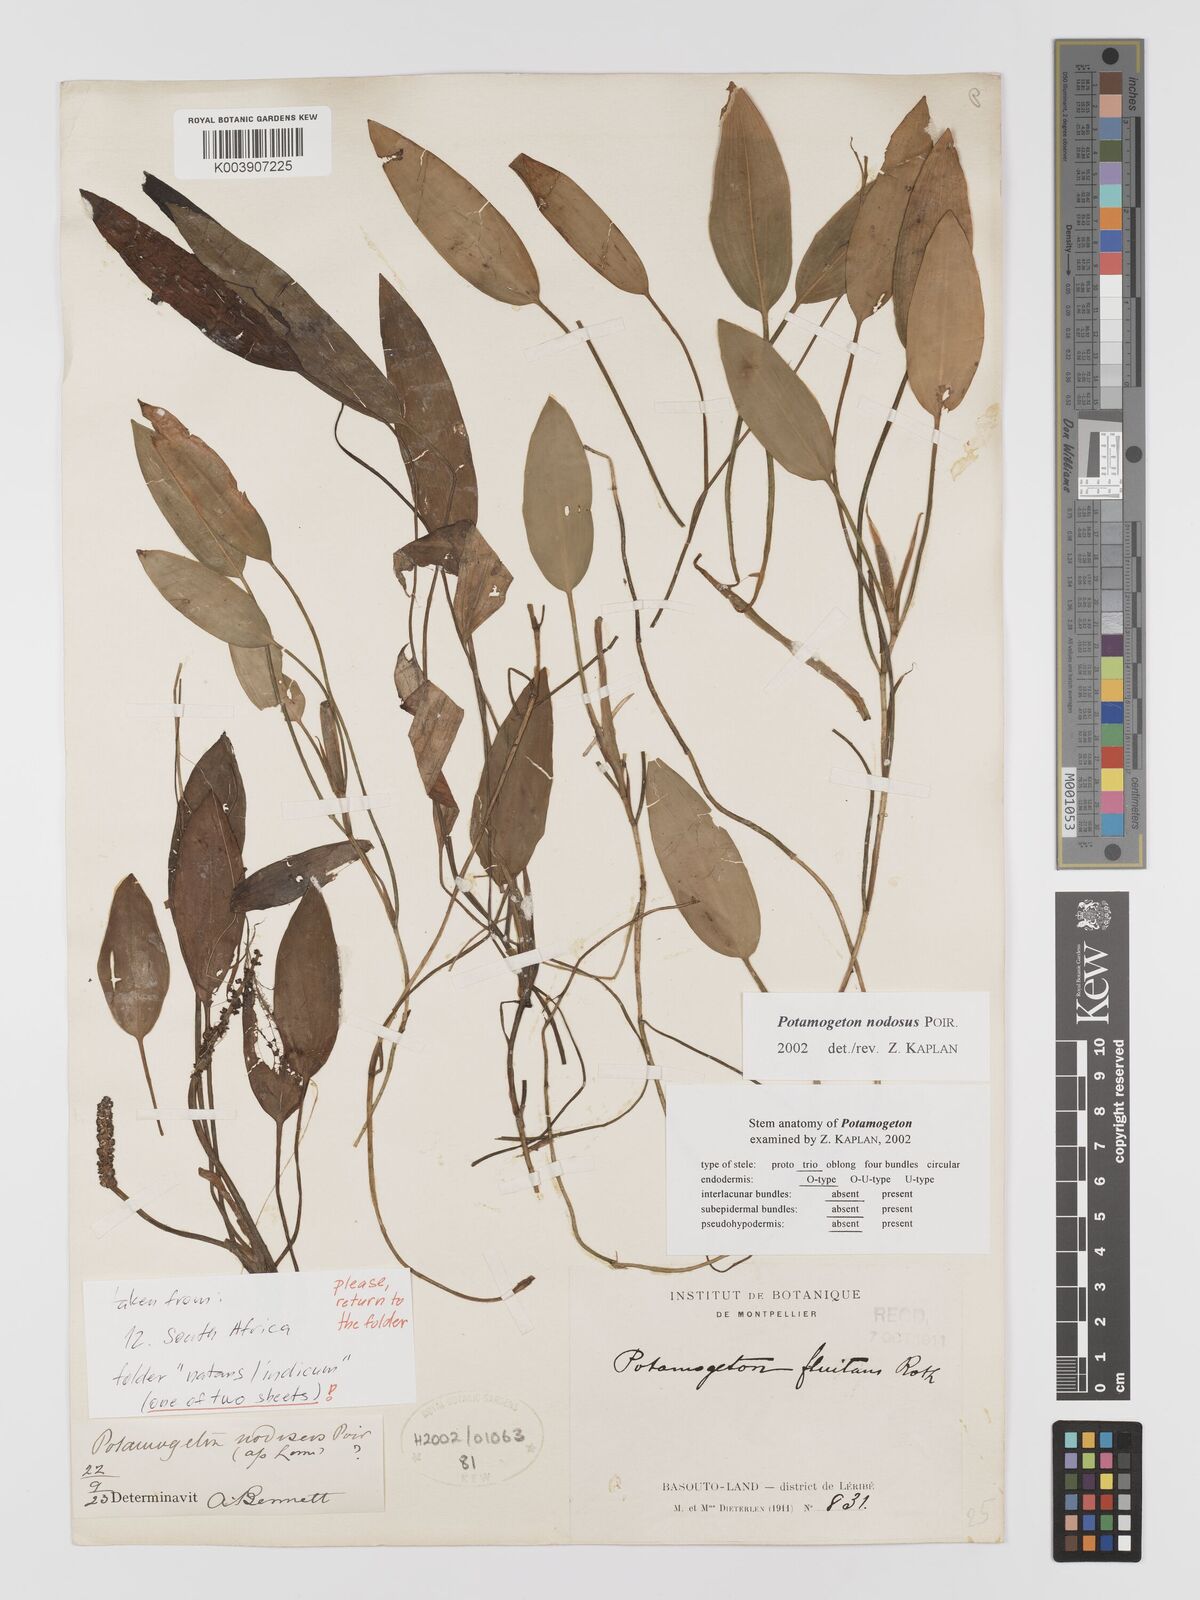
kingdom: Plantae
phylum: Tracheophyta
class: Liliopsida
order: Alismatales
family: Potamogetonaceae
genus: Potamogeton
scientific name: Potamogeton nodosus
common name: Loddon pondweed
